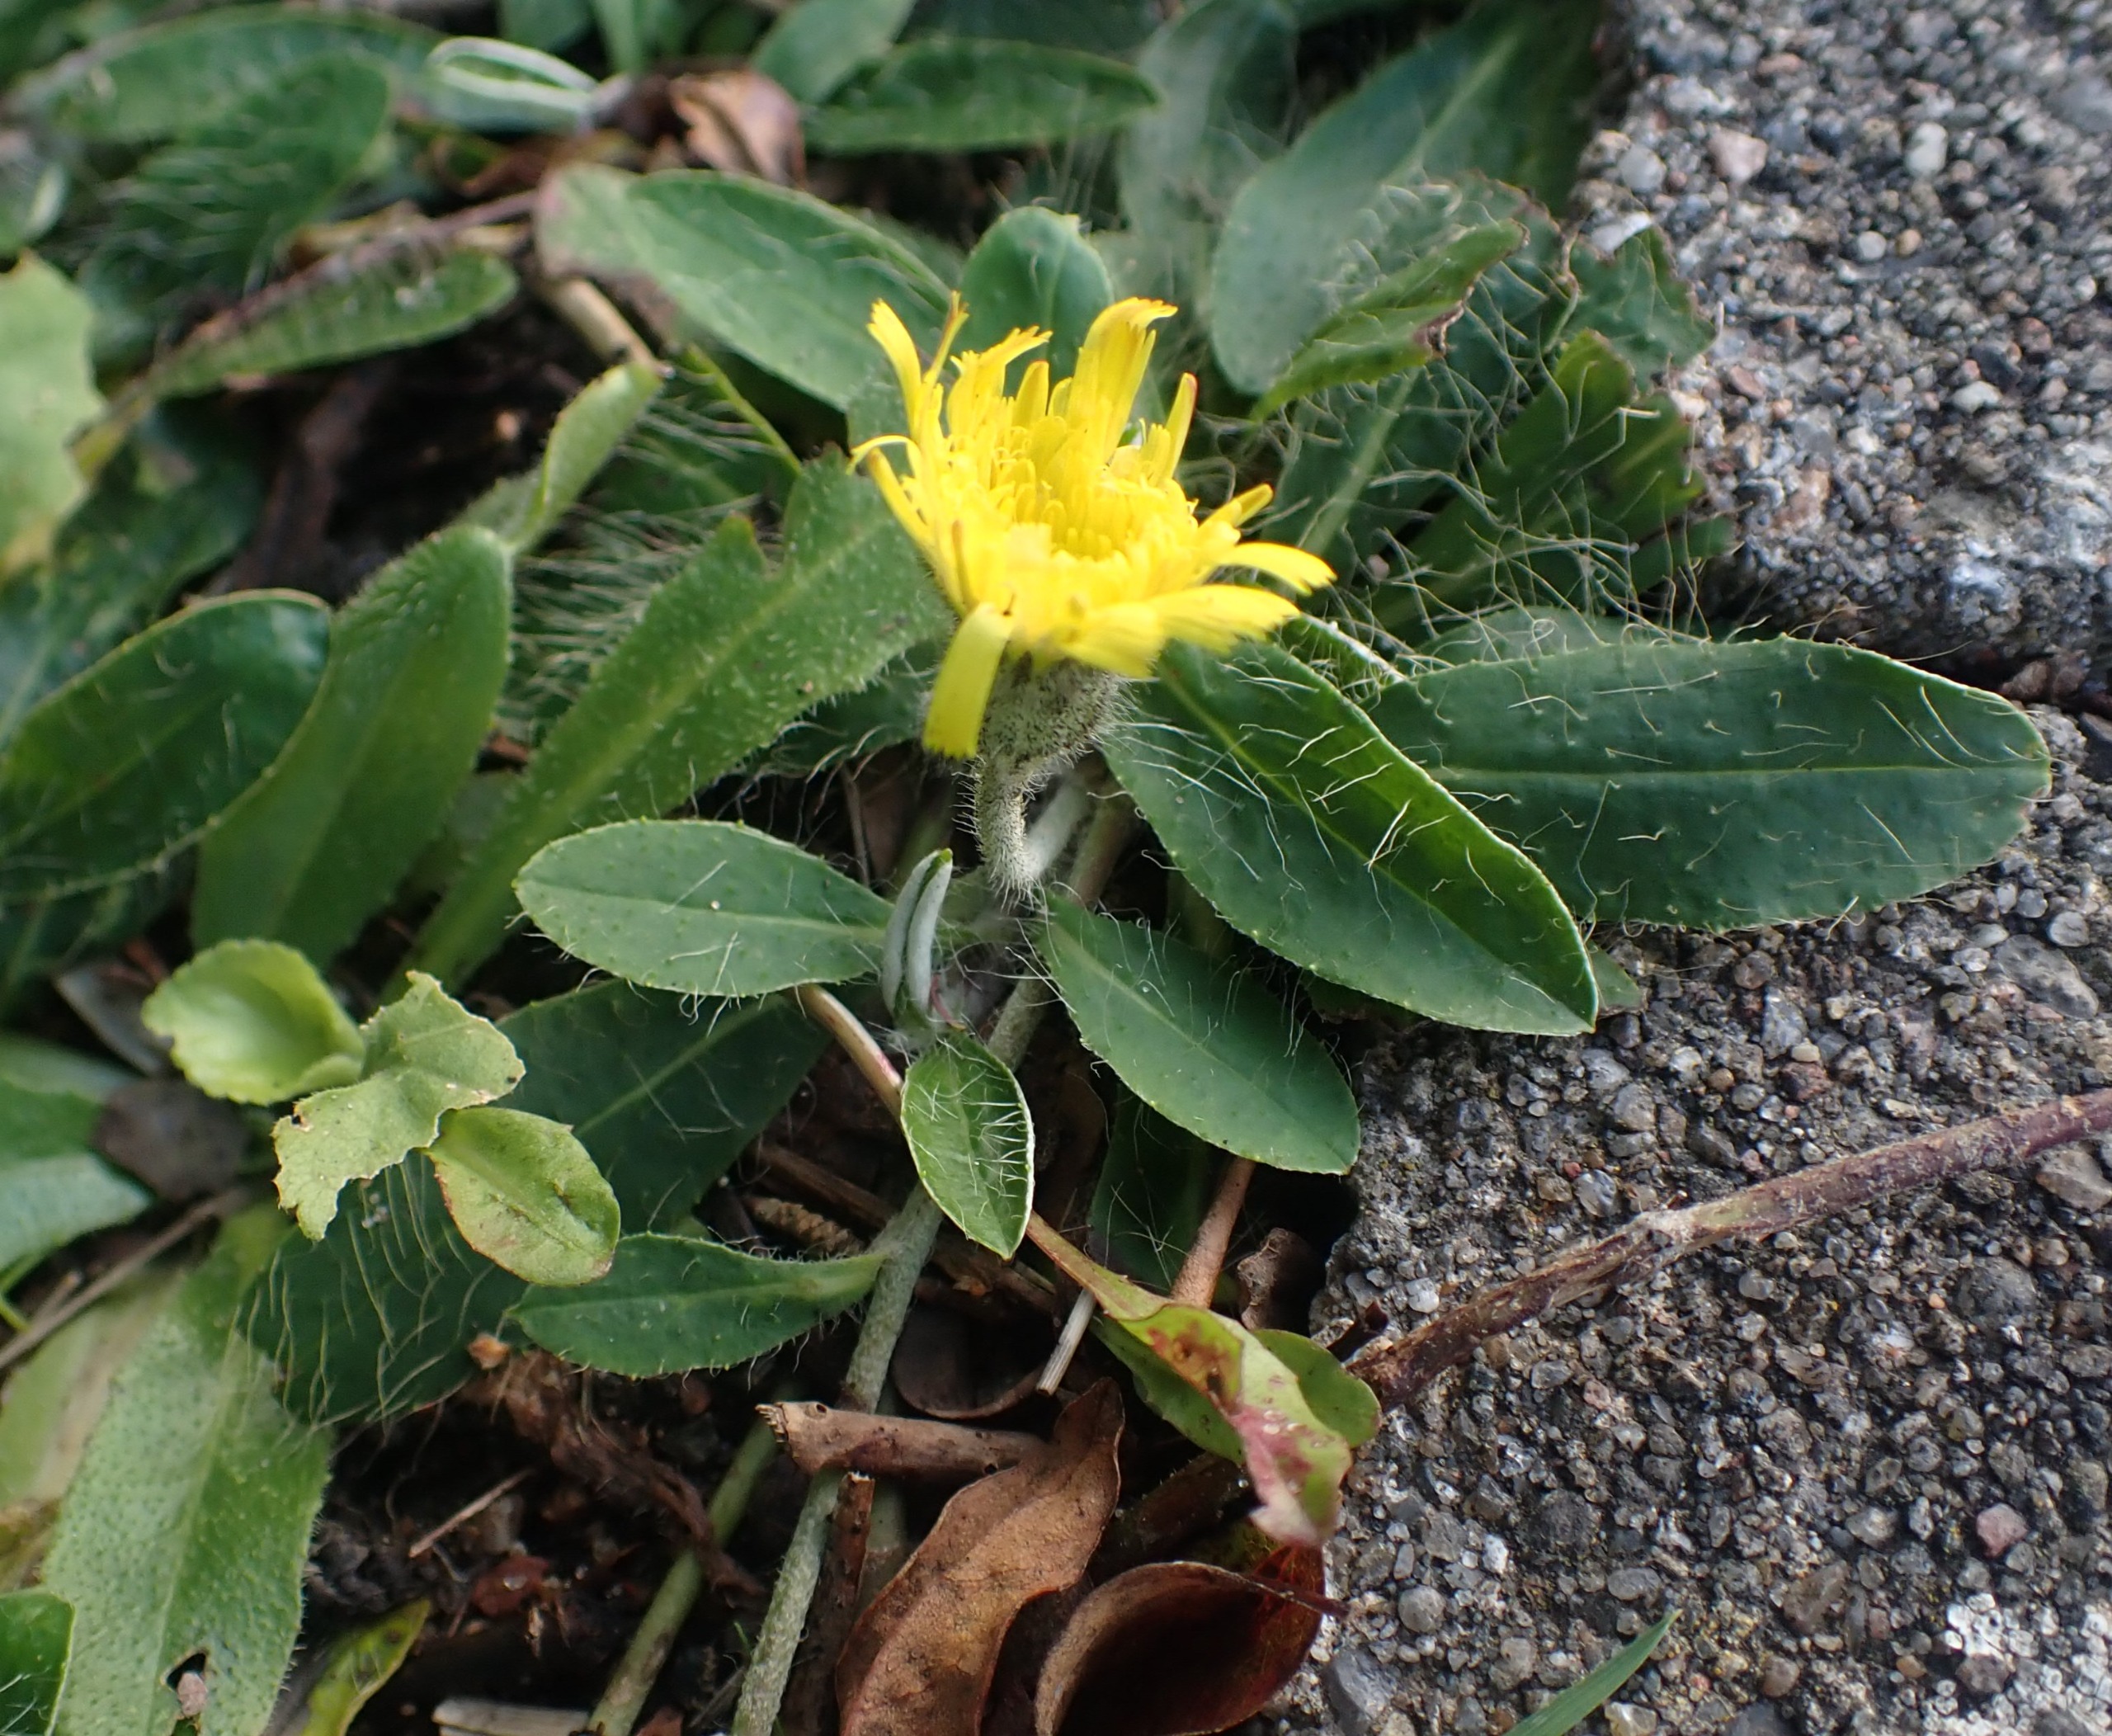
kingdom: Plantae
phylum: Tracheophyta
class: Magnoliopsida
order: Asterales
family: Asteraceae
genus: Pilosella
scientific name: Pilosella officinarum
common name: Håret høgeurt
